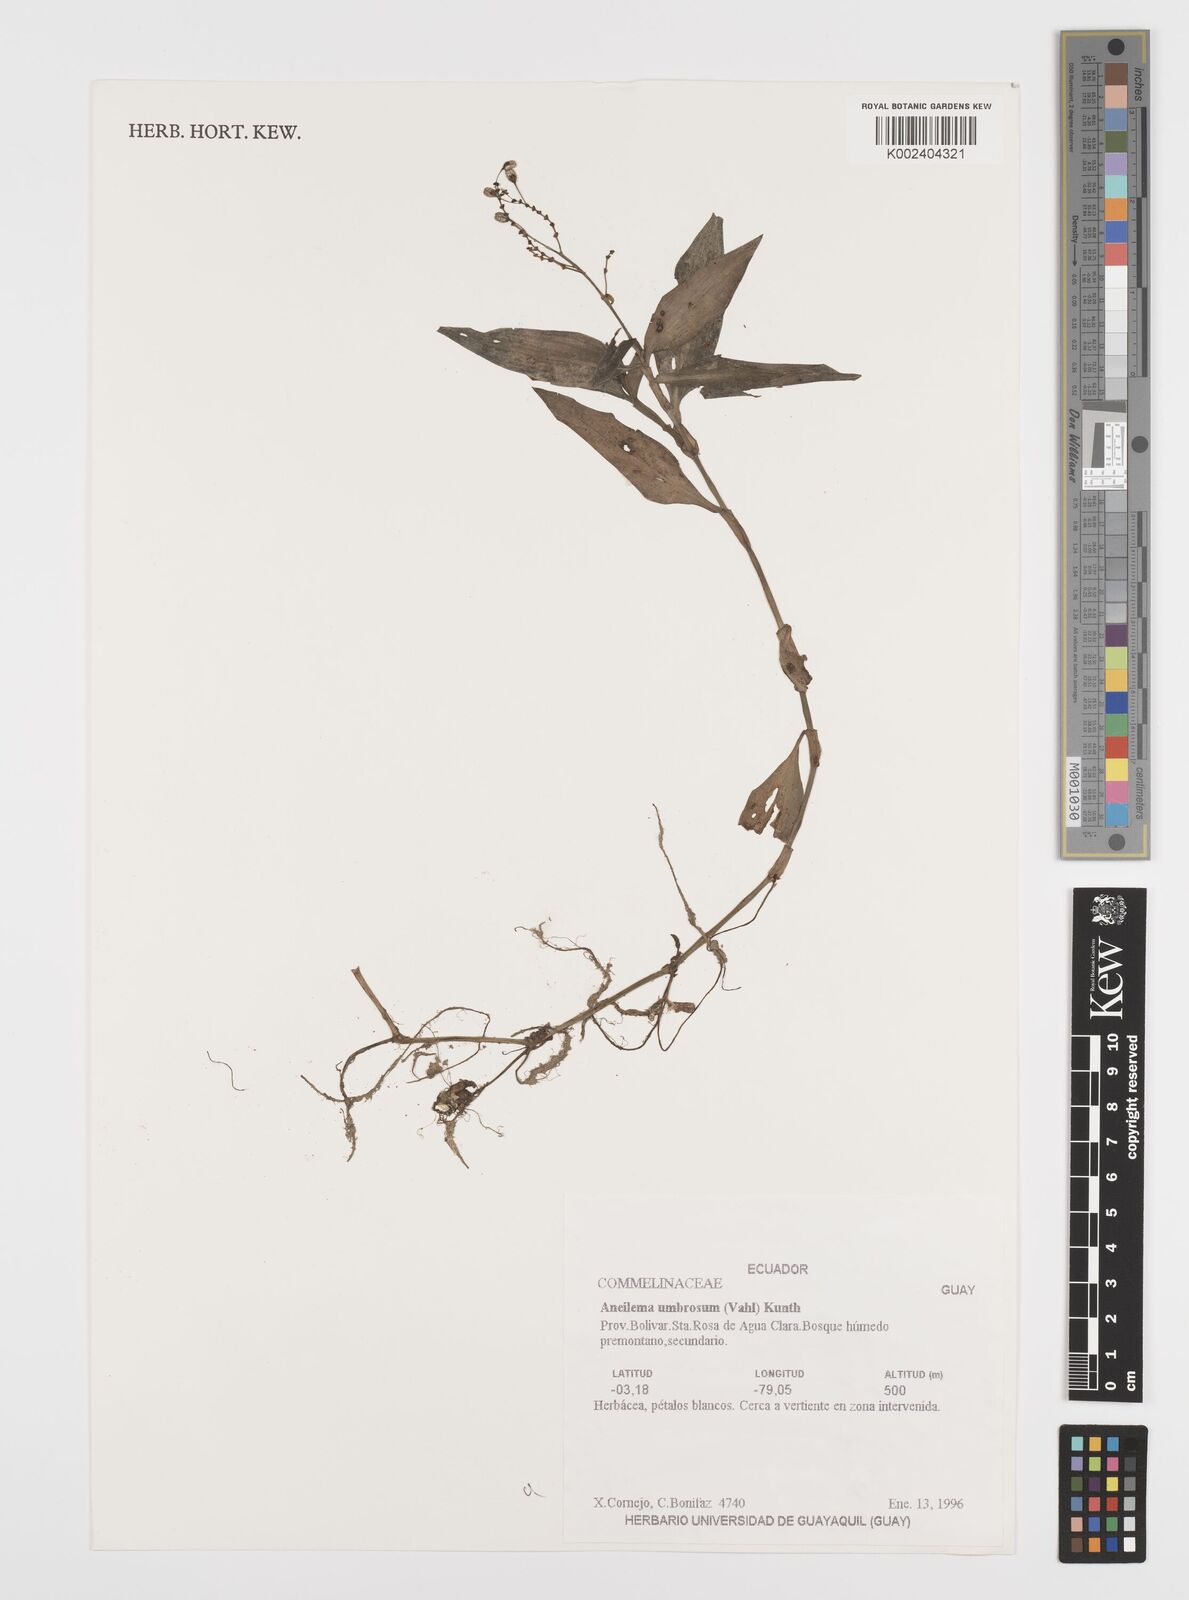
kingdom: Plantae
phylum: Tracheophyta
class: Liliopsida
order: Commelinales
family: Commelinaceae
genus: Aneilema
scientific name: Aneilema umbrosum
